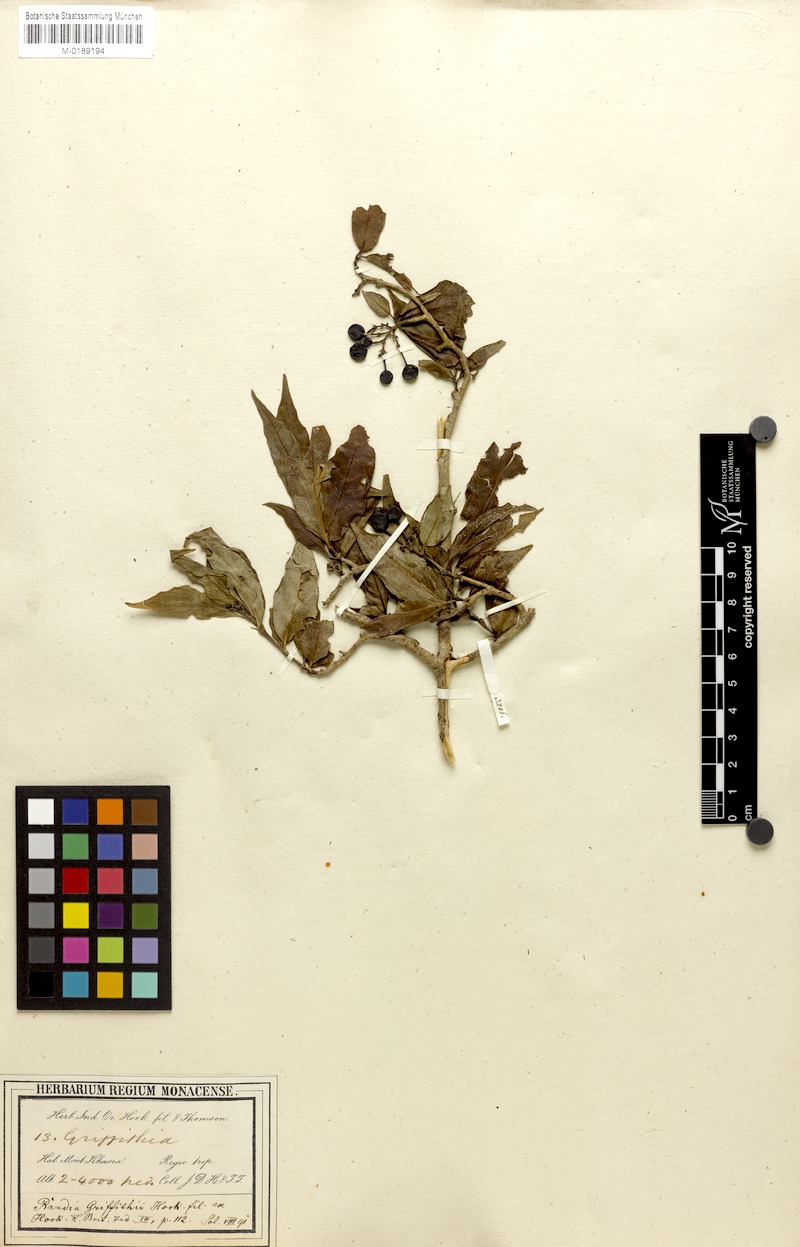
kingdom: Plantae
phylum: Tracheophyta
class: Magnoliopsida
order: Gentianales
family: Rubiaceae
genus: Benkara
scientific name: Benkara griffithii
